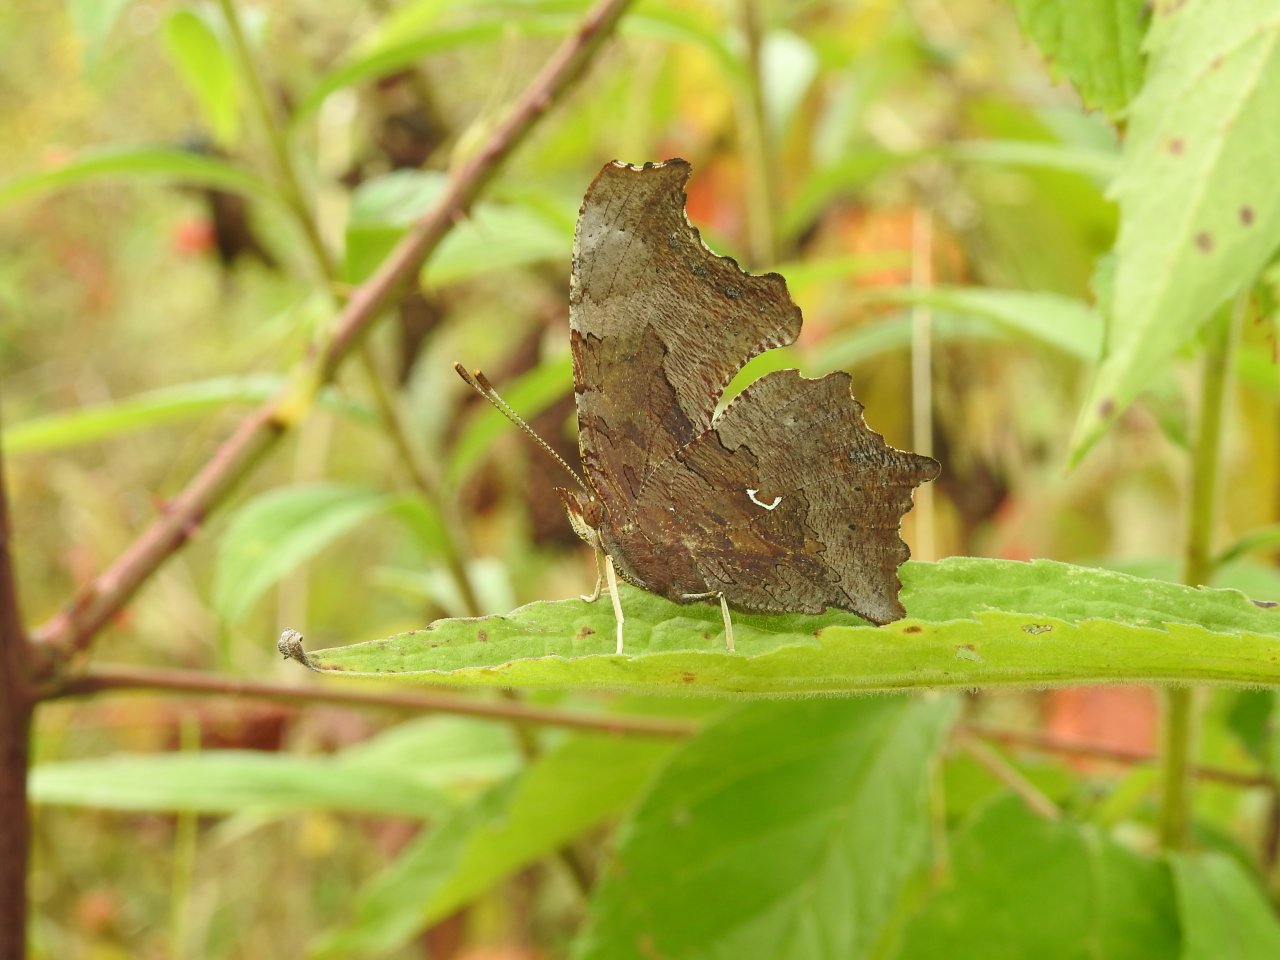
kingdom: Animalia
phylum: Arthropoda
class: Insecta
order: Lepidoptera
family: Nymphalidae
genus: Polygonia
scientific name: Polygonia comma
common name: Eastern Comma
